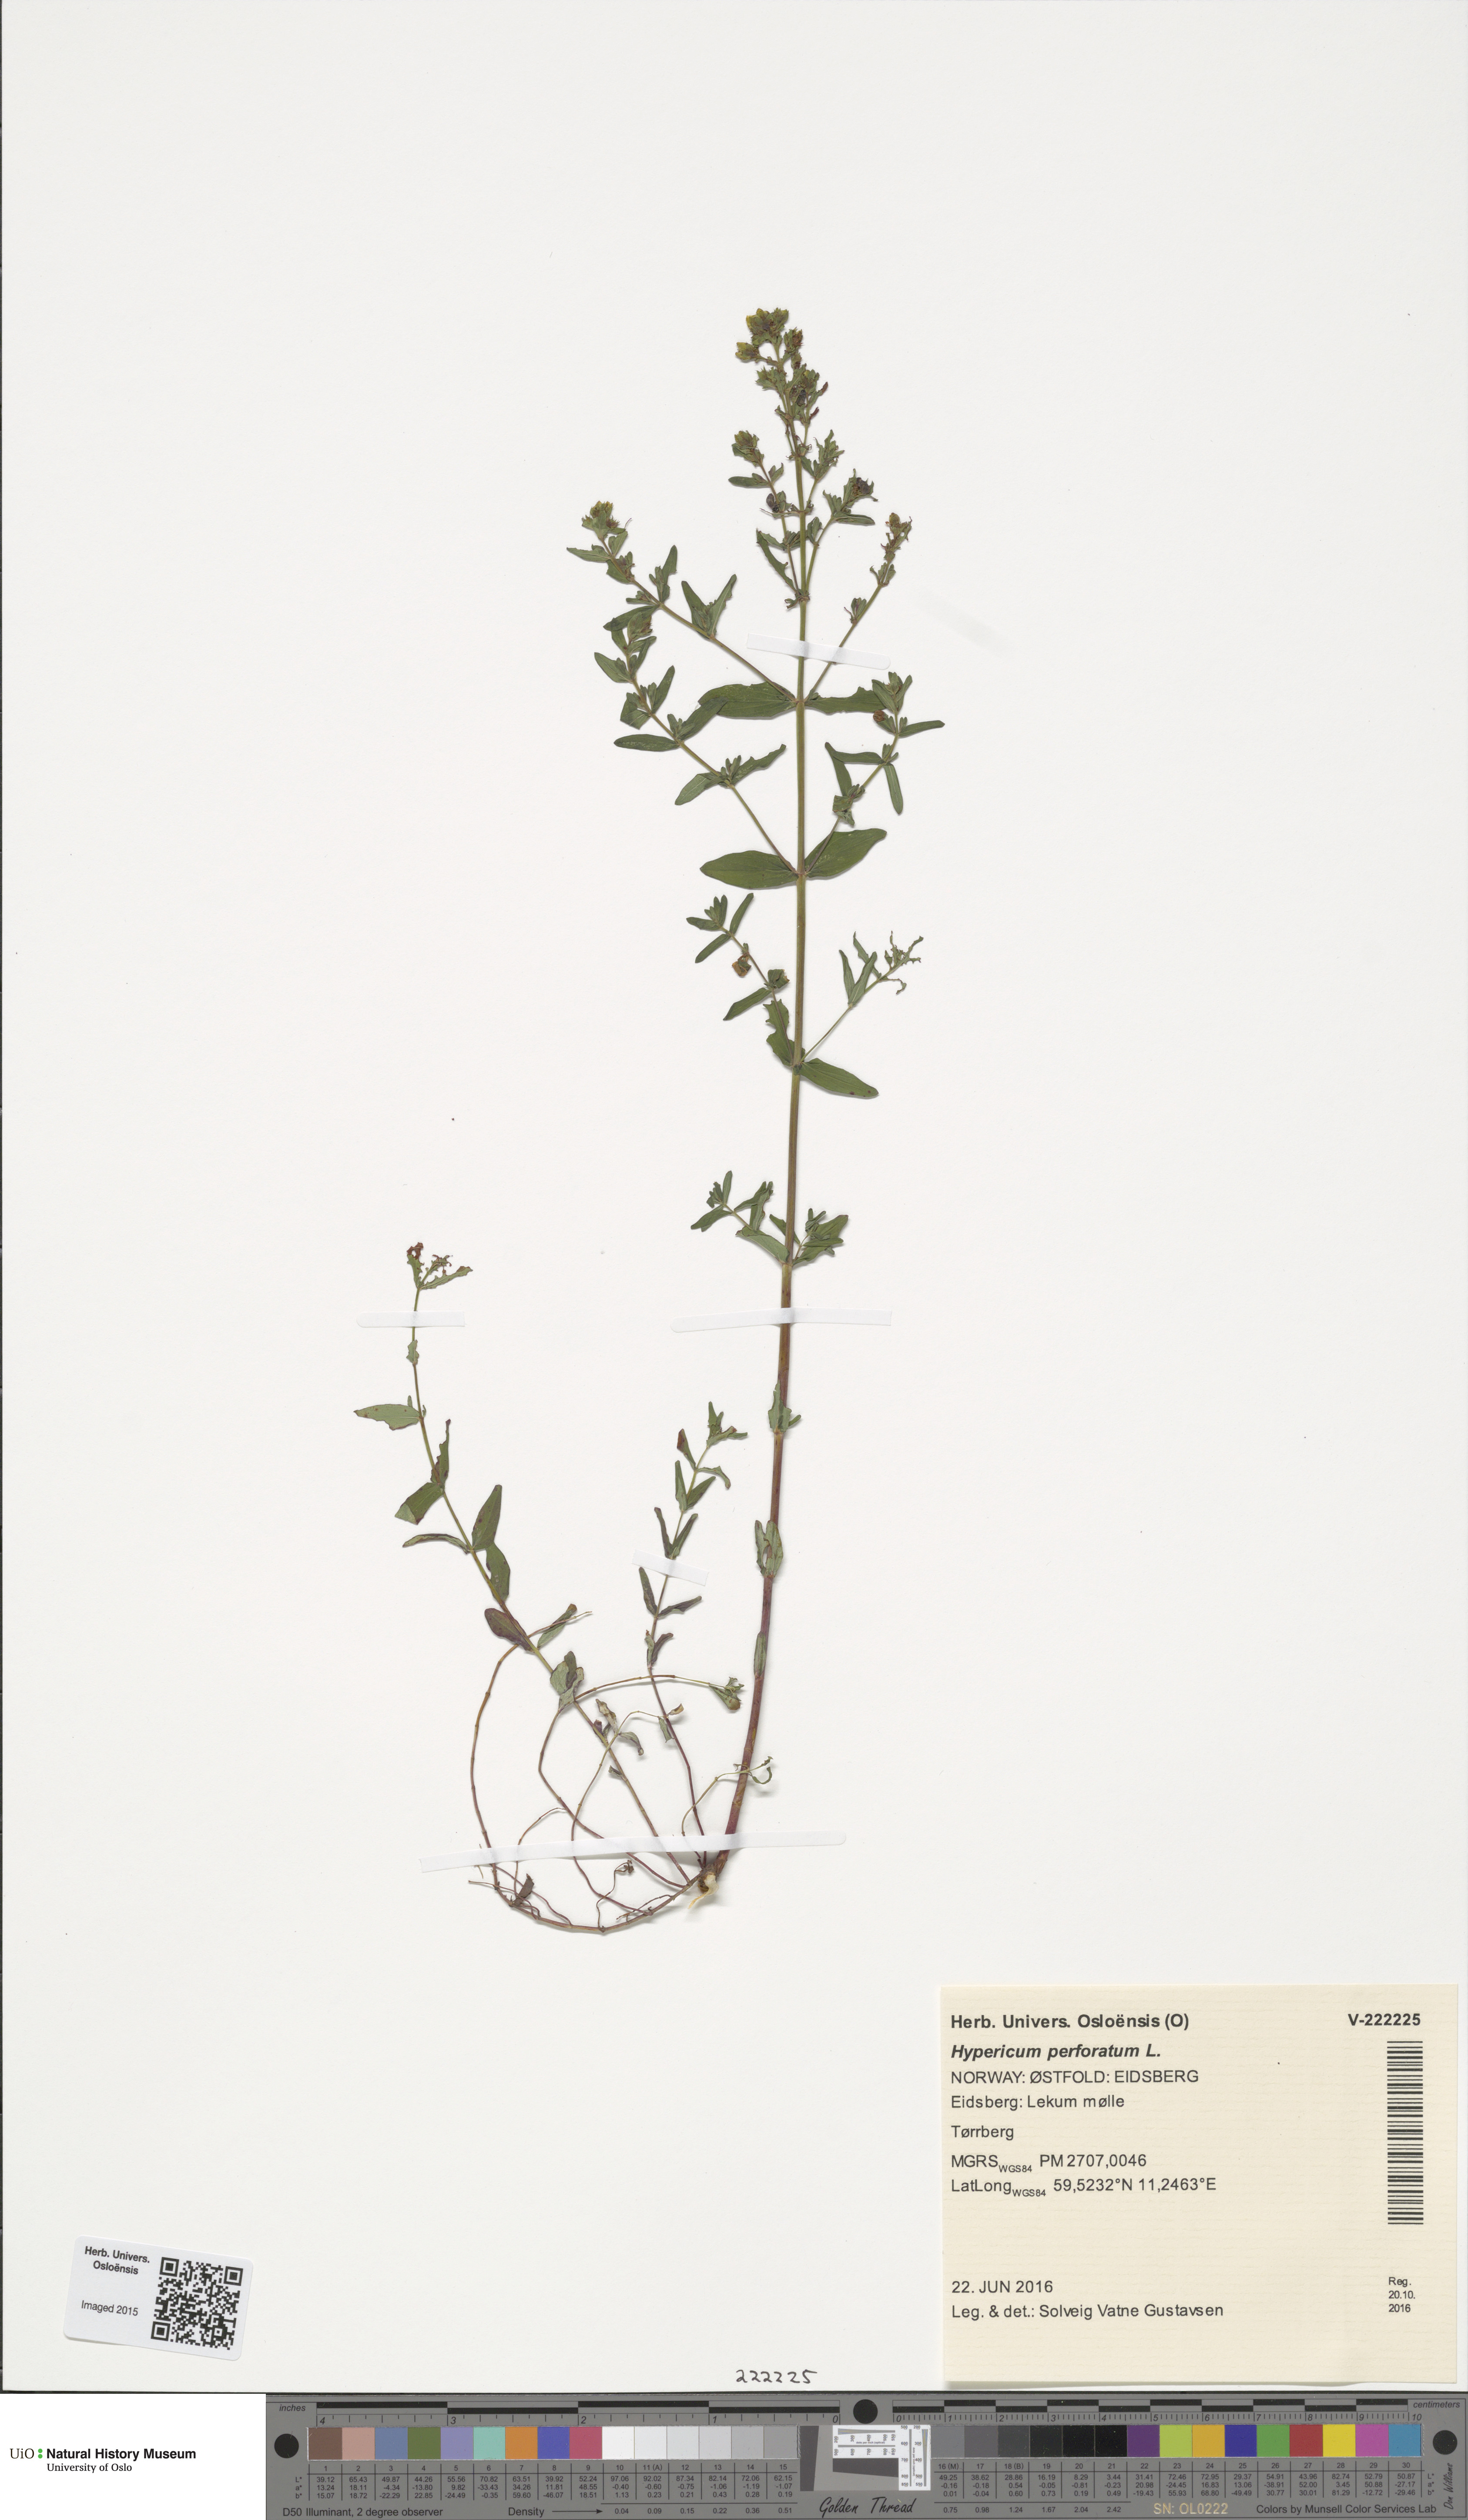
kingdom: Plantae
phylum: Tracheophyta
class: Magnoliopsida
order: Malpighiales
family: Hypericaceae
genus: Hypericum
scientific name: Hypericum perforatum
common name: Common st. johnswort
